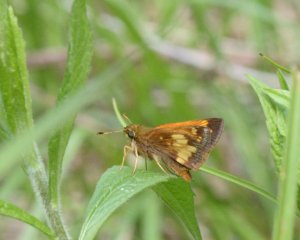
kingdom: Animalia
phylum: Arthropoda
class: Insecta
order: Lepidoptera
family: Hesperiidae
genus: Lon
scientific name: Lon hobomok
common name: Hobomok Skipper
